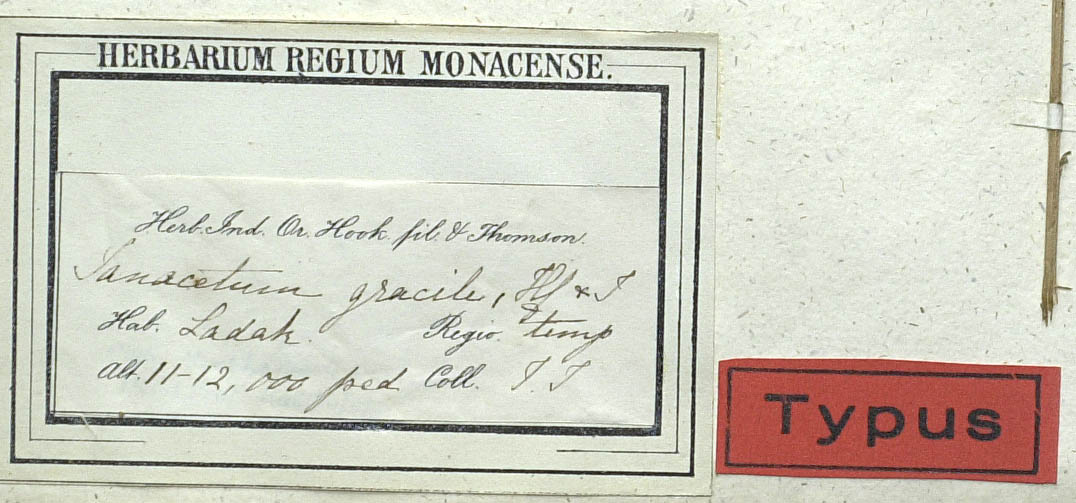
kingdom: Plantae
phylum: Tracheophyta
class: Magnoliopsida
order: Asterales
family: Asteraceae
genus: Ajania
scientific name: Ajania fruticulosa
